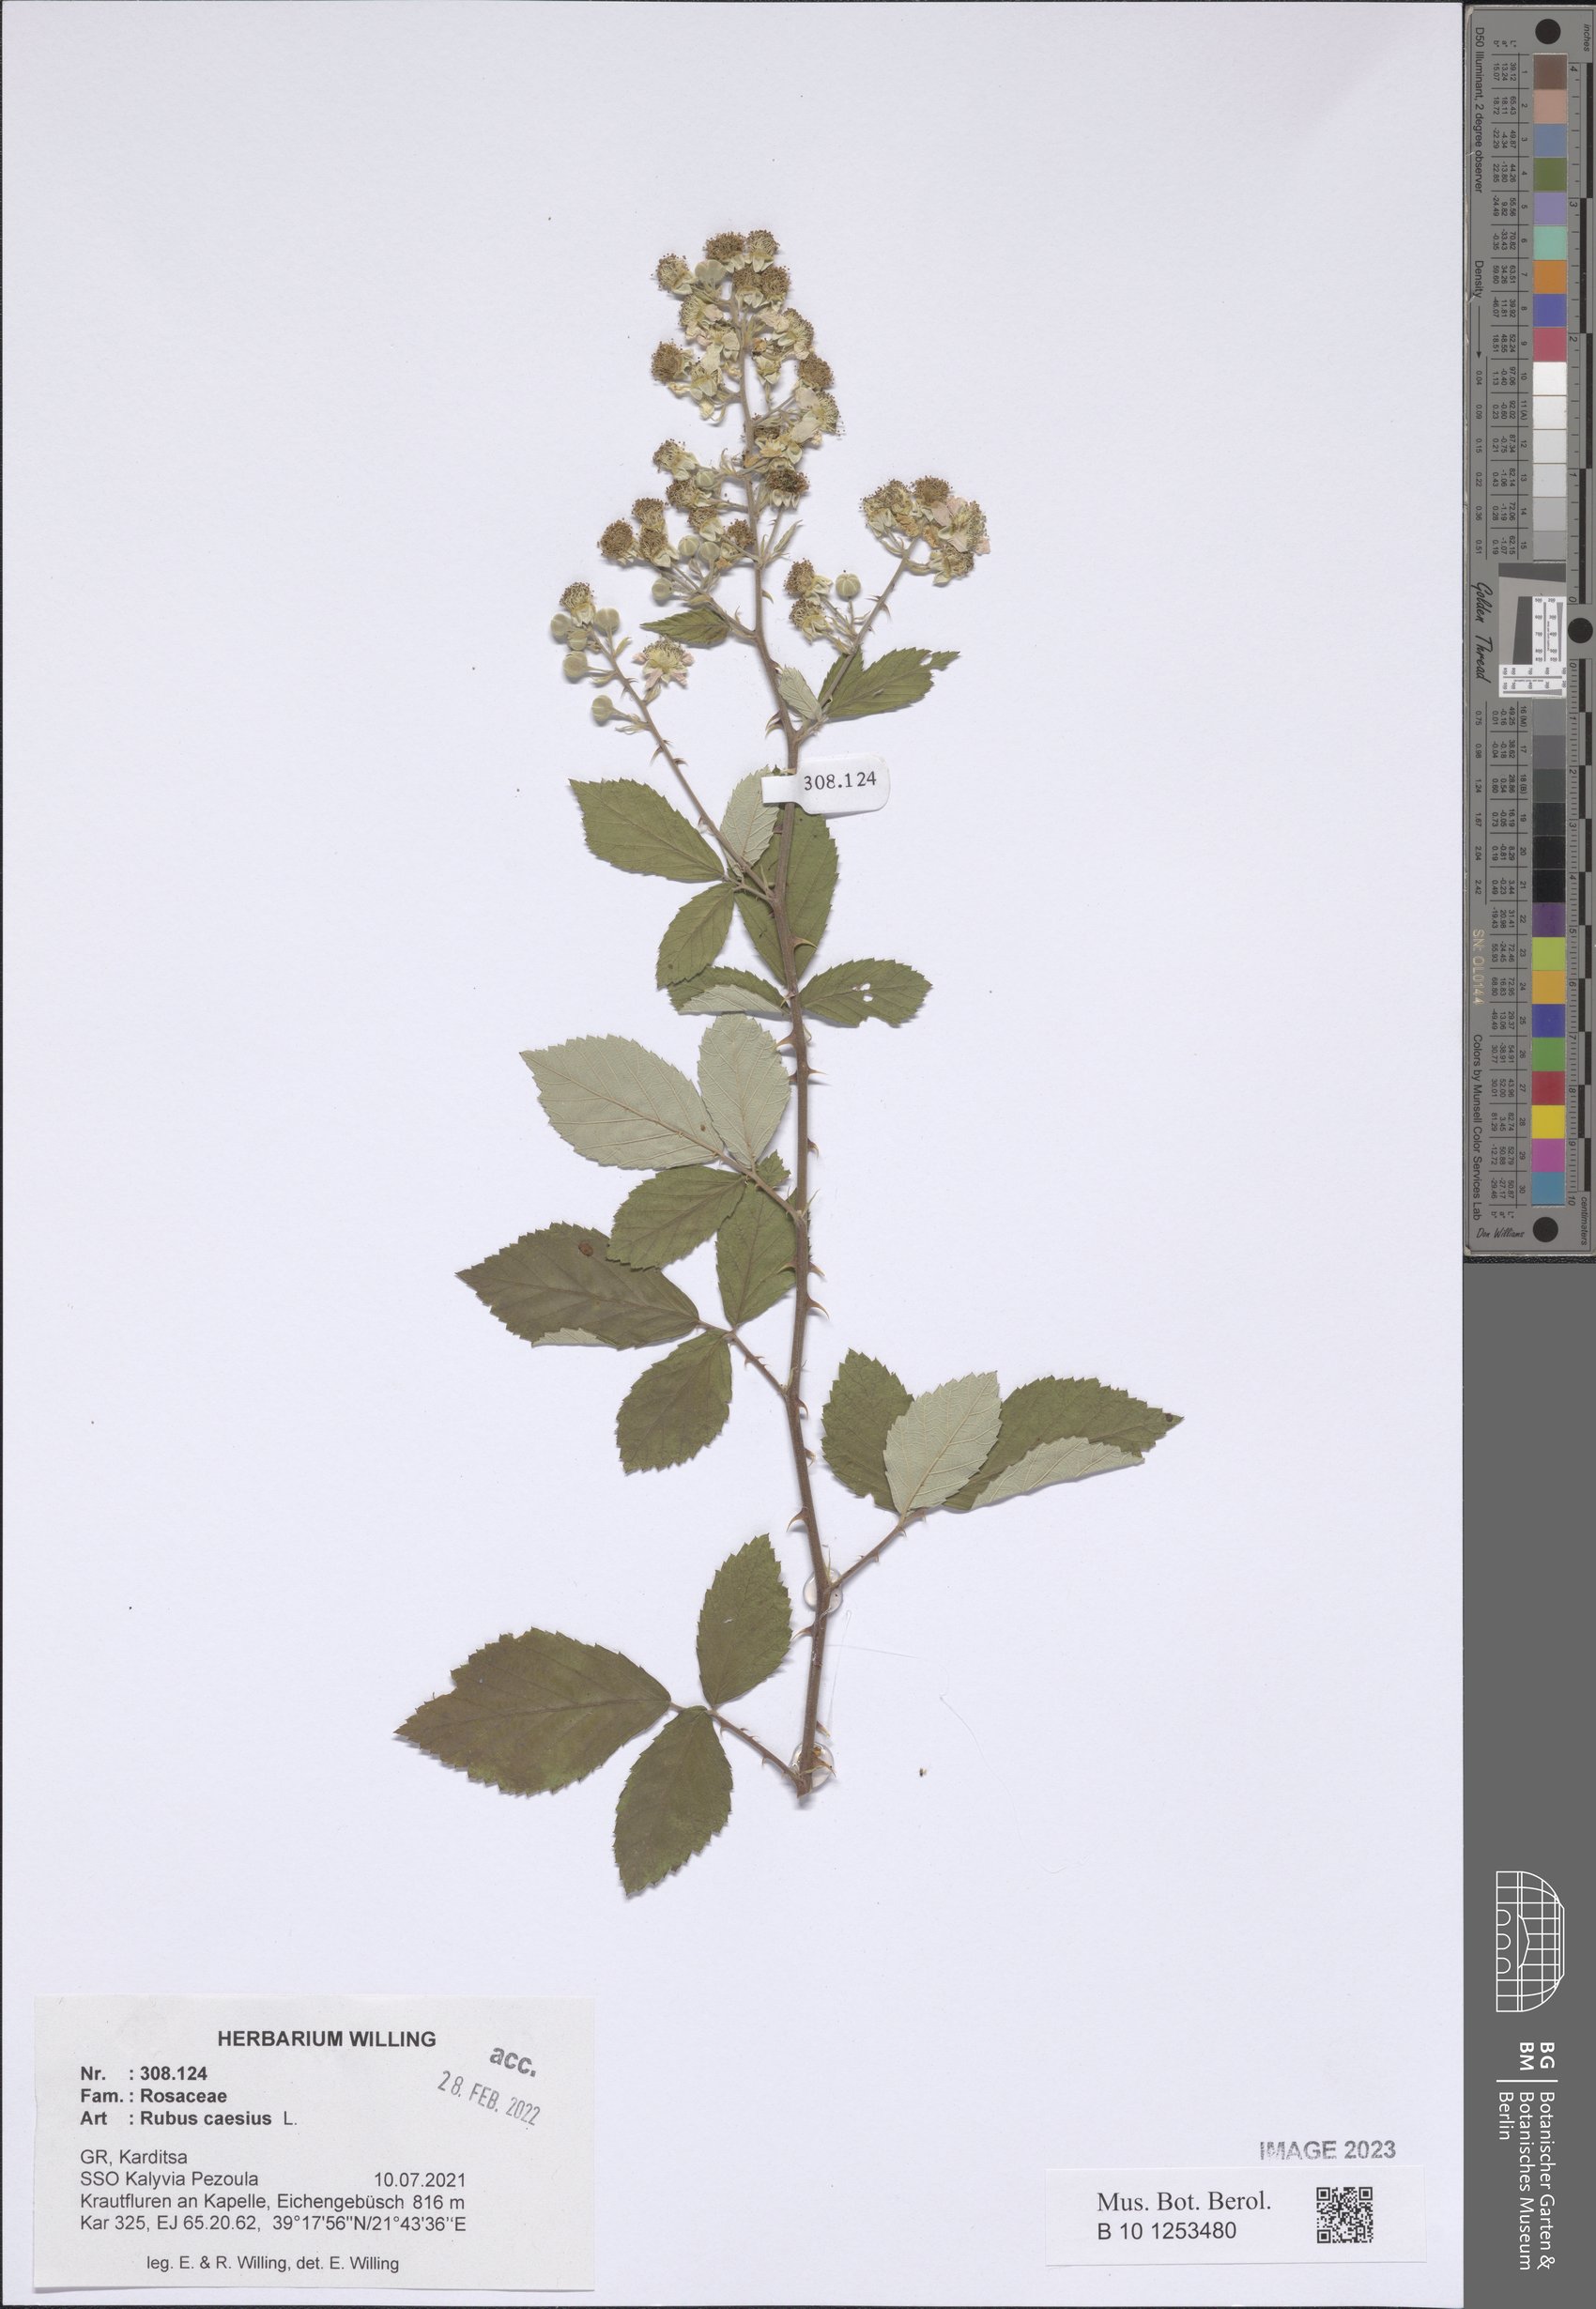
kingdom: Plantae
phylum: Tracheophyta
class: Magnoliopsida
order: Rosales
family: Rosaceae
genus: Rubus
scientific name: Rubus caesius
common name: Dewberry
